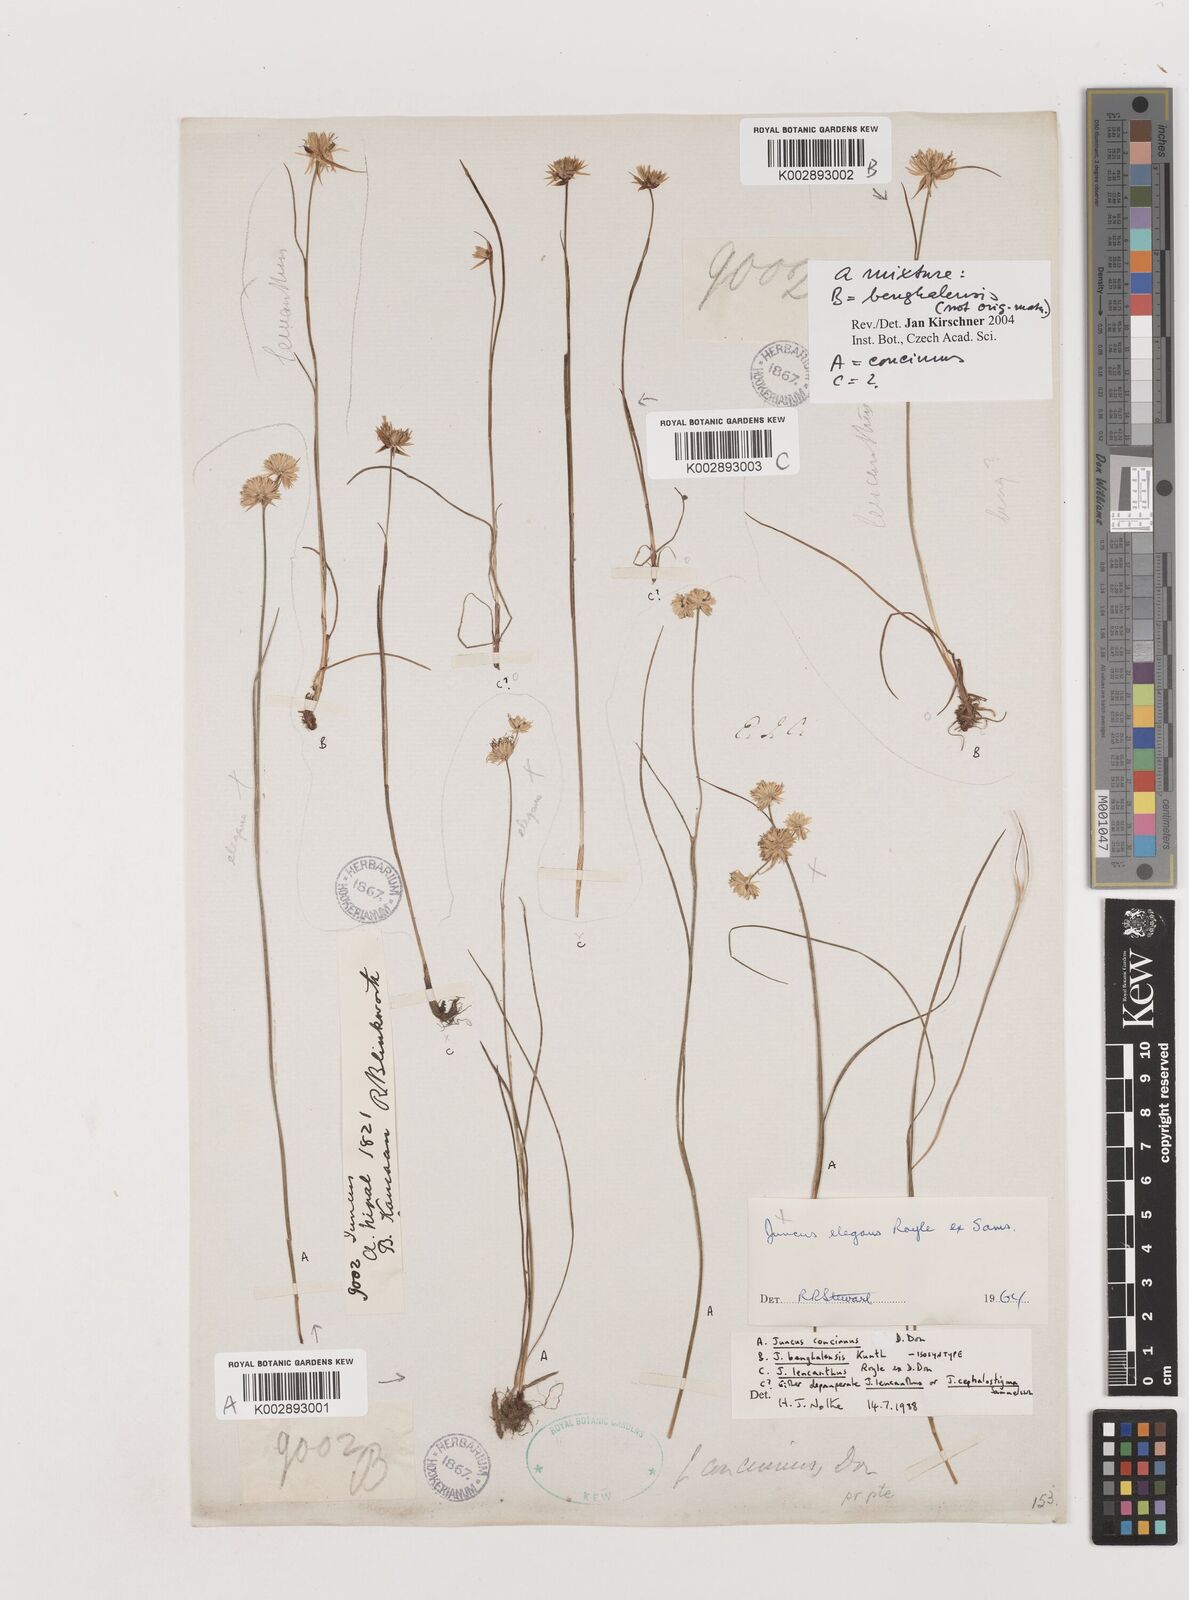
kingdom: Plantae
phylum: Tracheophyta
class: Liliopsida
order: Poales
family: Juncaceae
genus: Juncus
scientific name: Juncus
